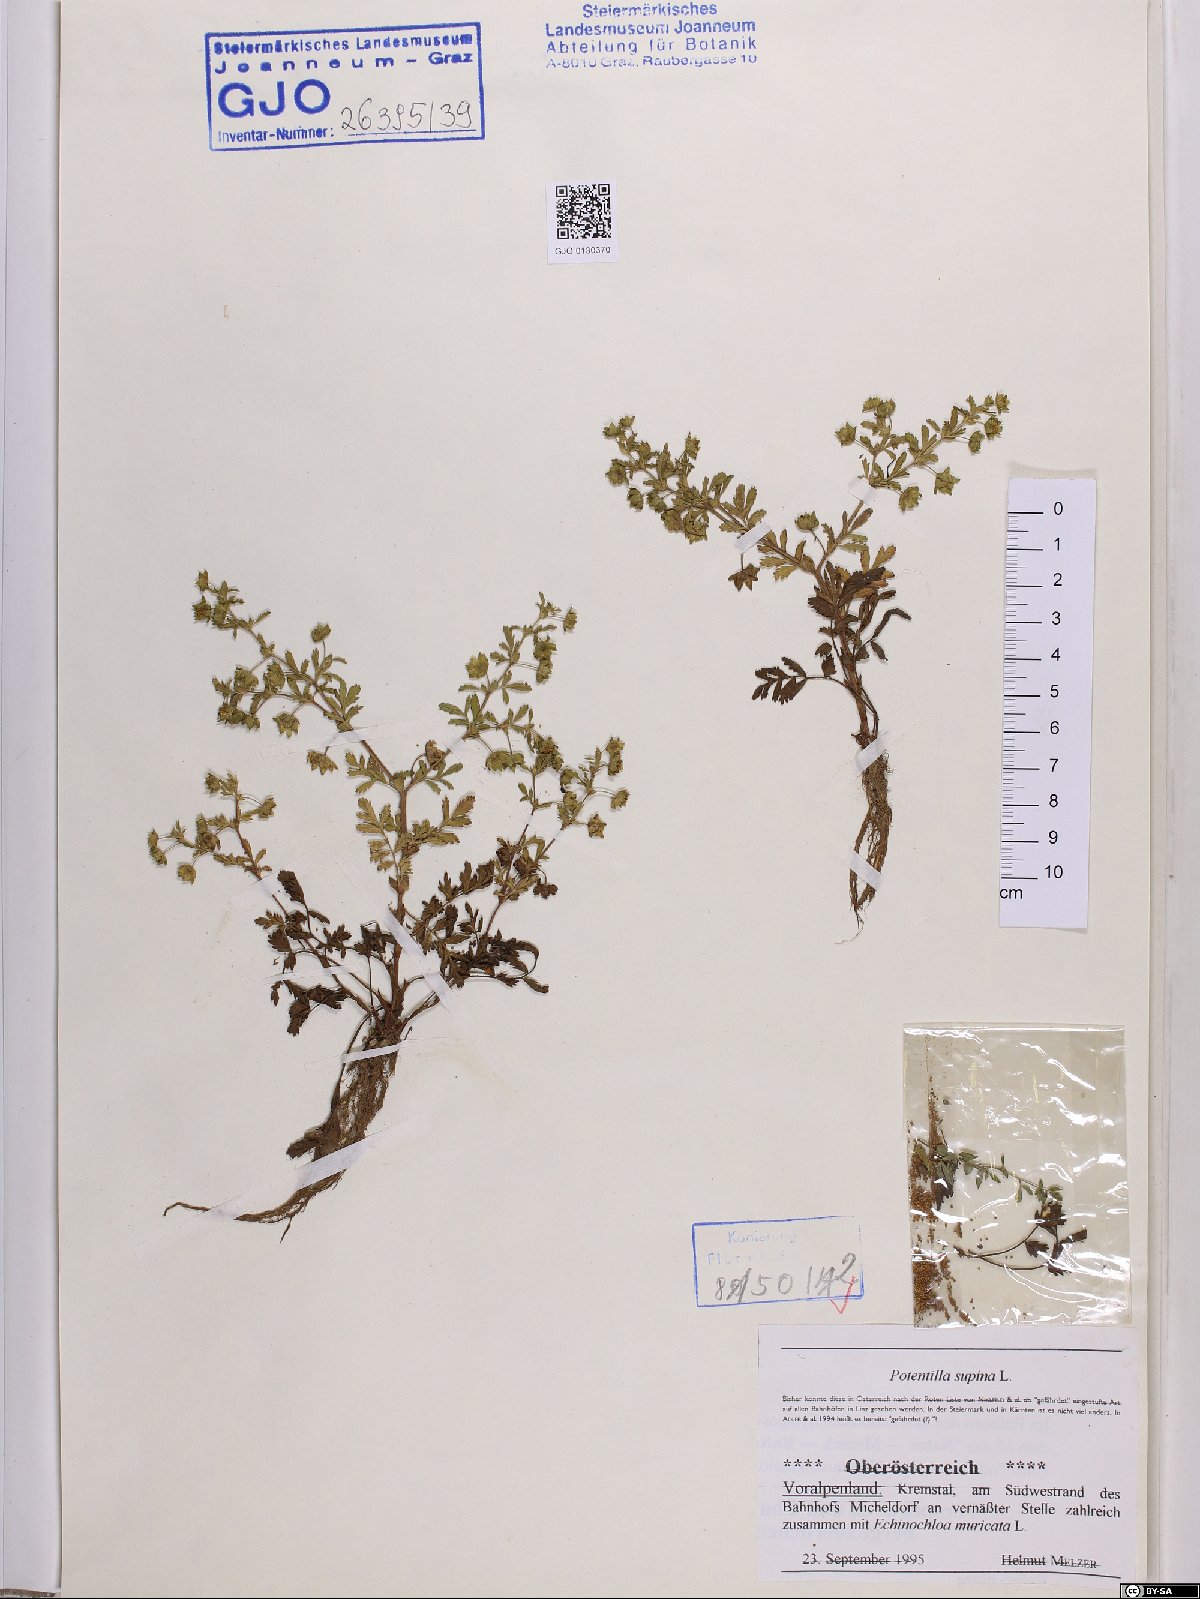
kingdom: Plantae
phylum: Tracheophyta
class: Magnoliopsida
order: Rosales
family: Rosaceae
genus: Potentilla
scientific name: Potentilla supina
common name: Prostrate cinquefoil
